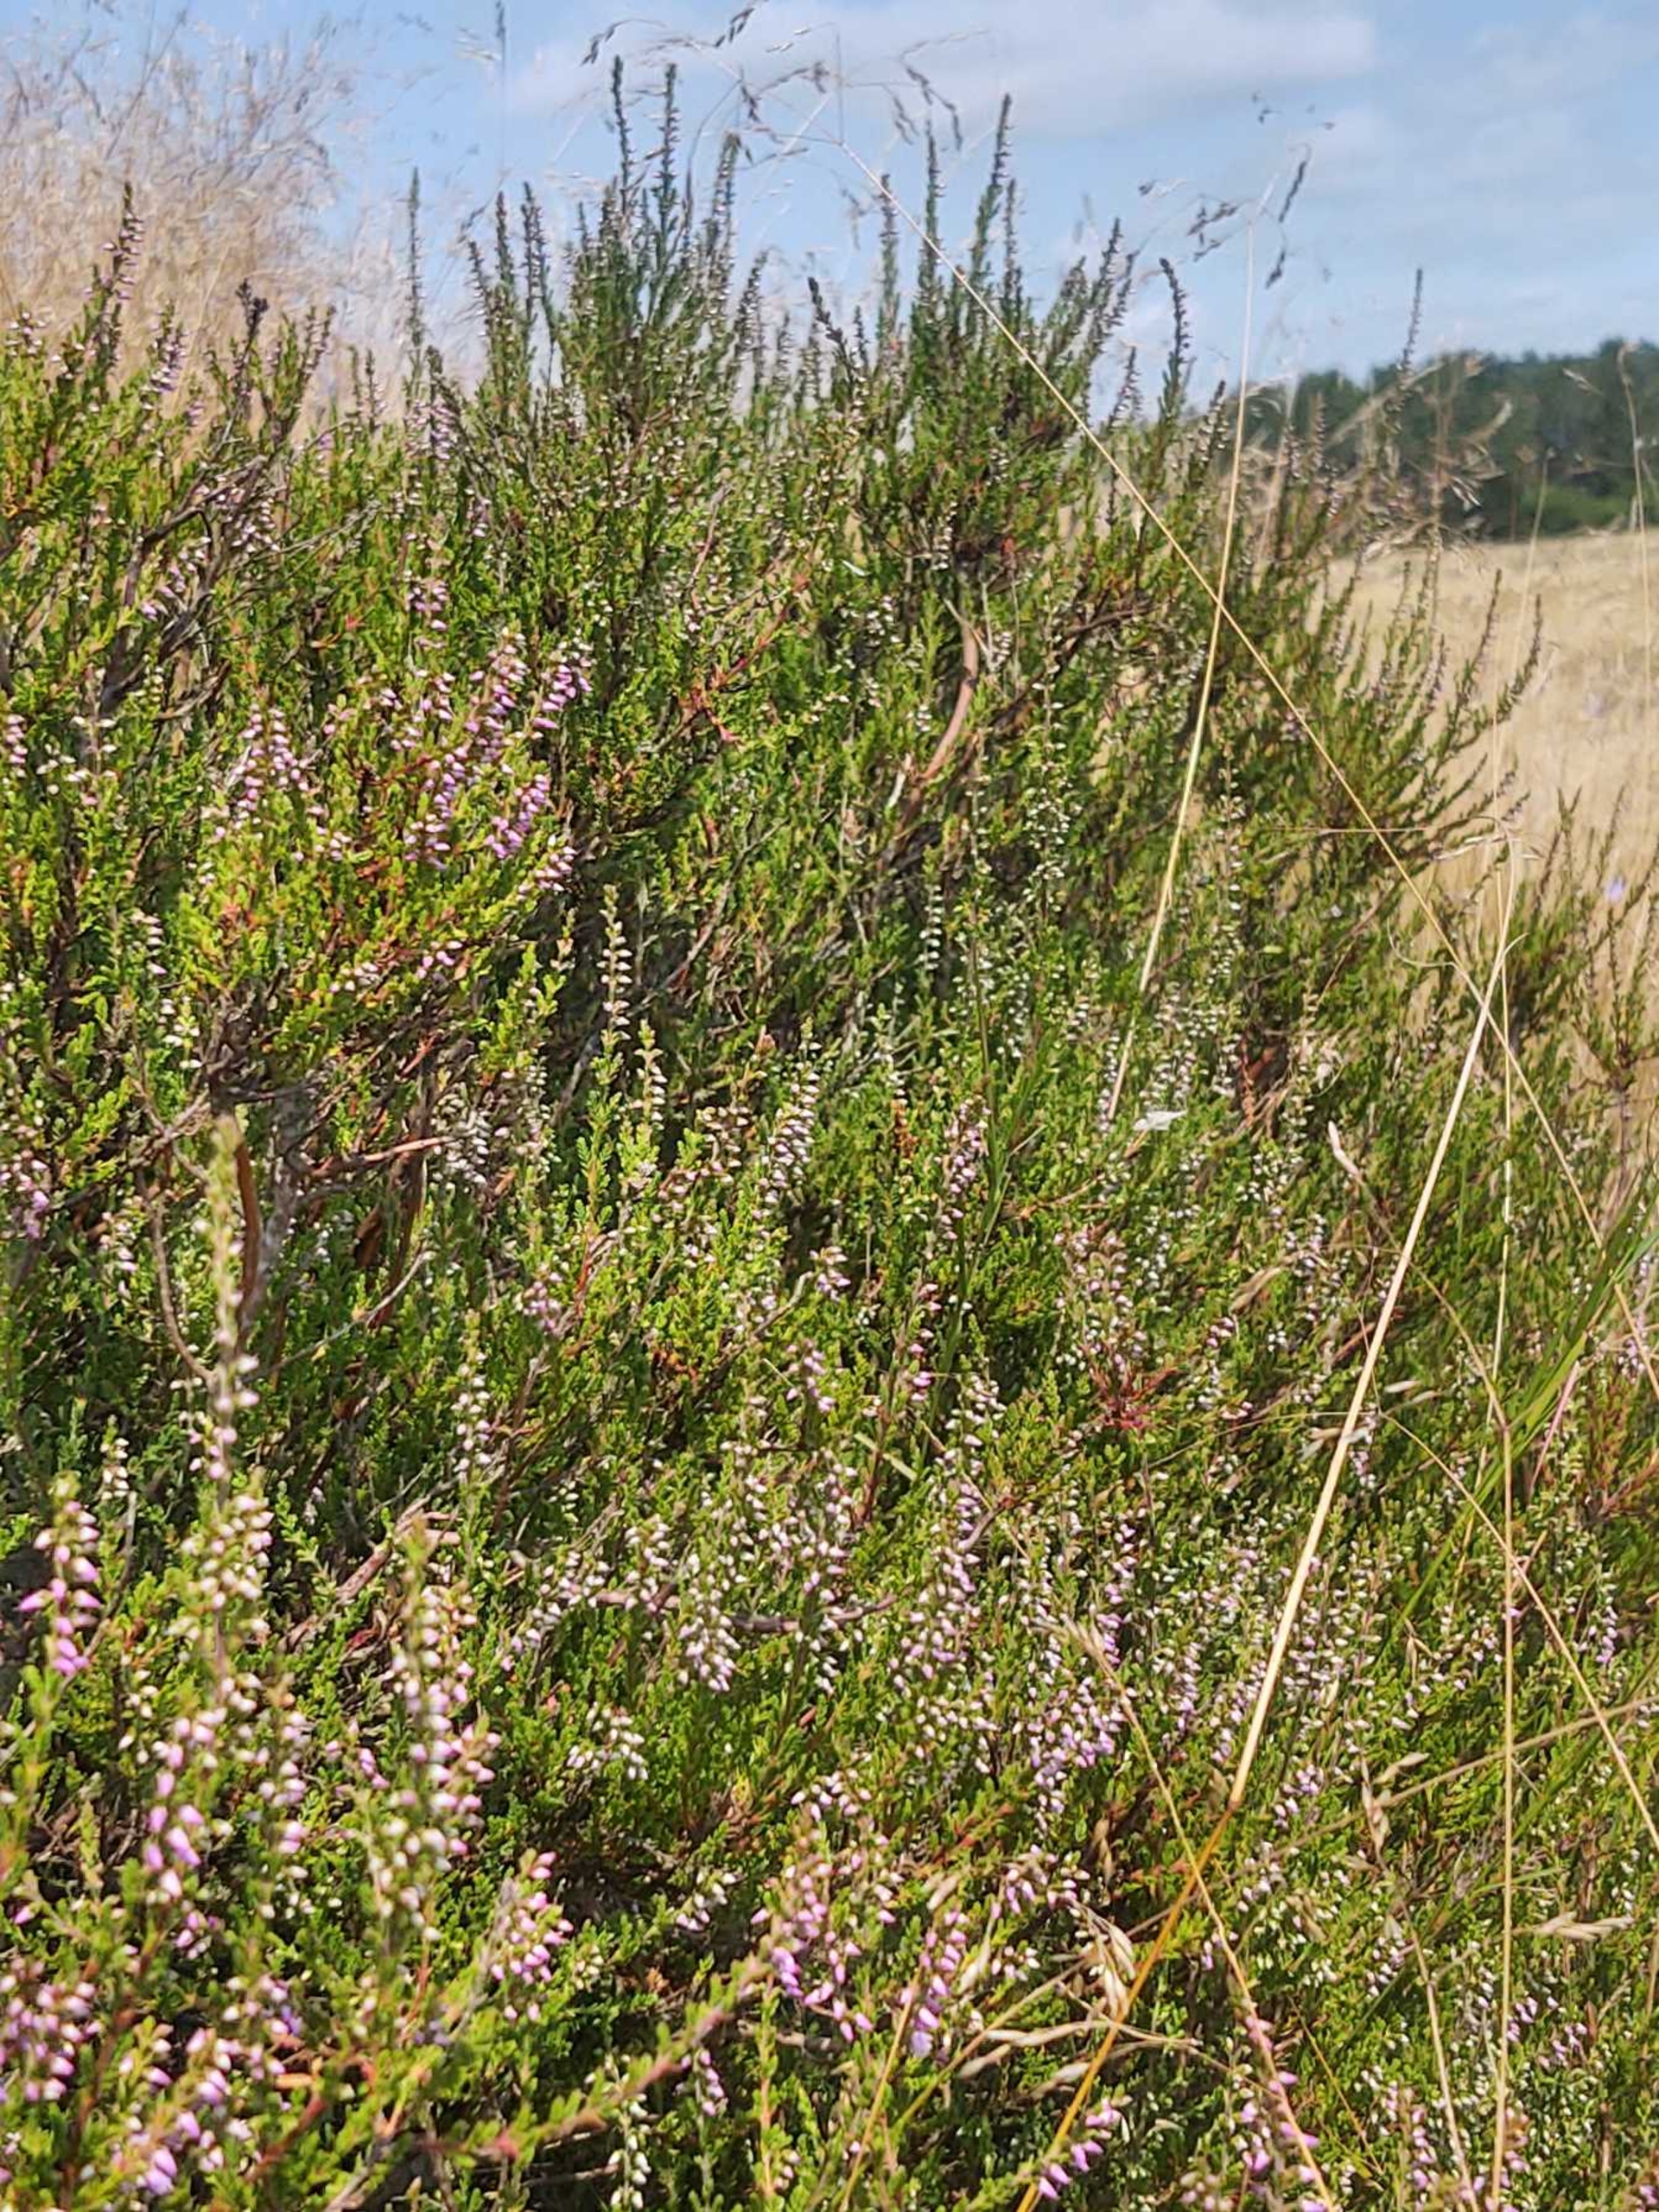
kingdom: Plantae
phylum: Tracheophyta
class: Magnoliopsida
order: Ericales
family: Ericaceae
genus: Calluna
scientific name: Calluna vulgaris
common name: Hedelyng
